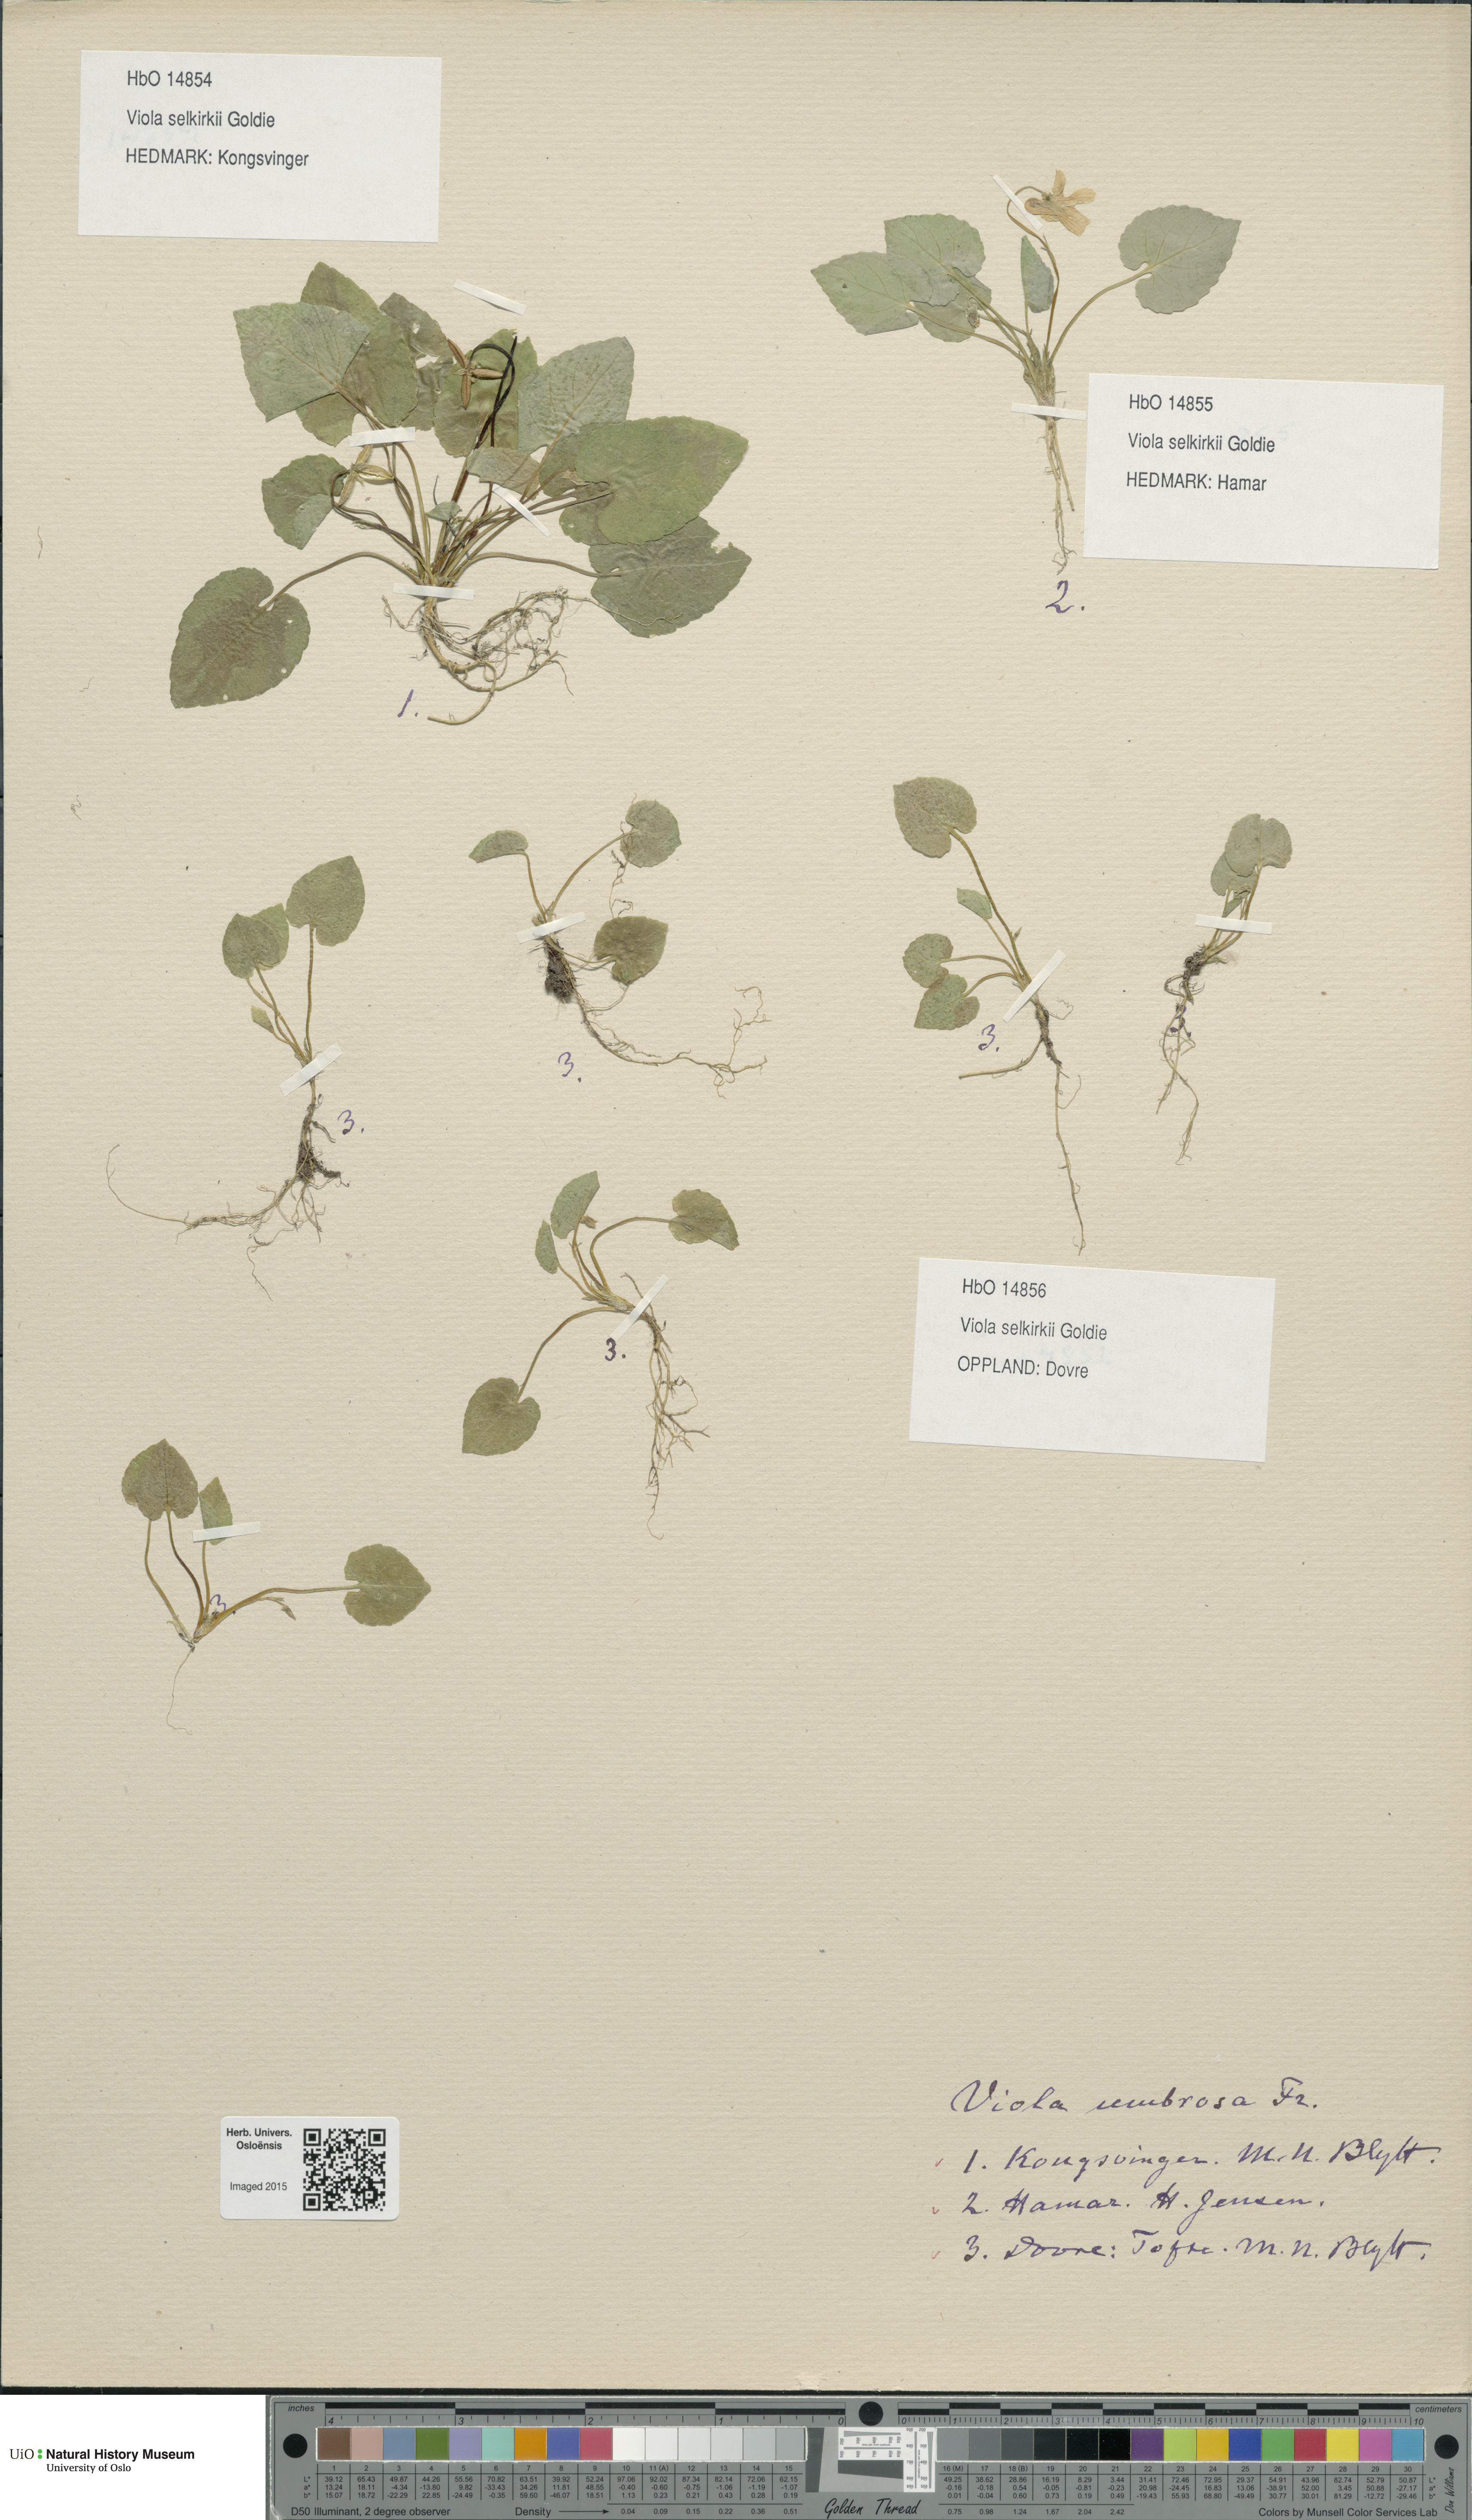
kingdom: Plantae
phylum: Tracheophyta
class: Magnoliopsida
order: Malpighiales
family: Violaceae
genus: Viola
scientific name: Viola selkirkii
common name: Selkirk's violet
